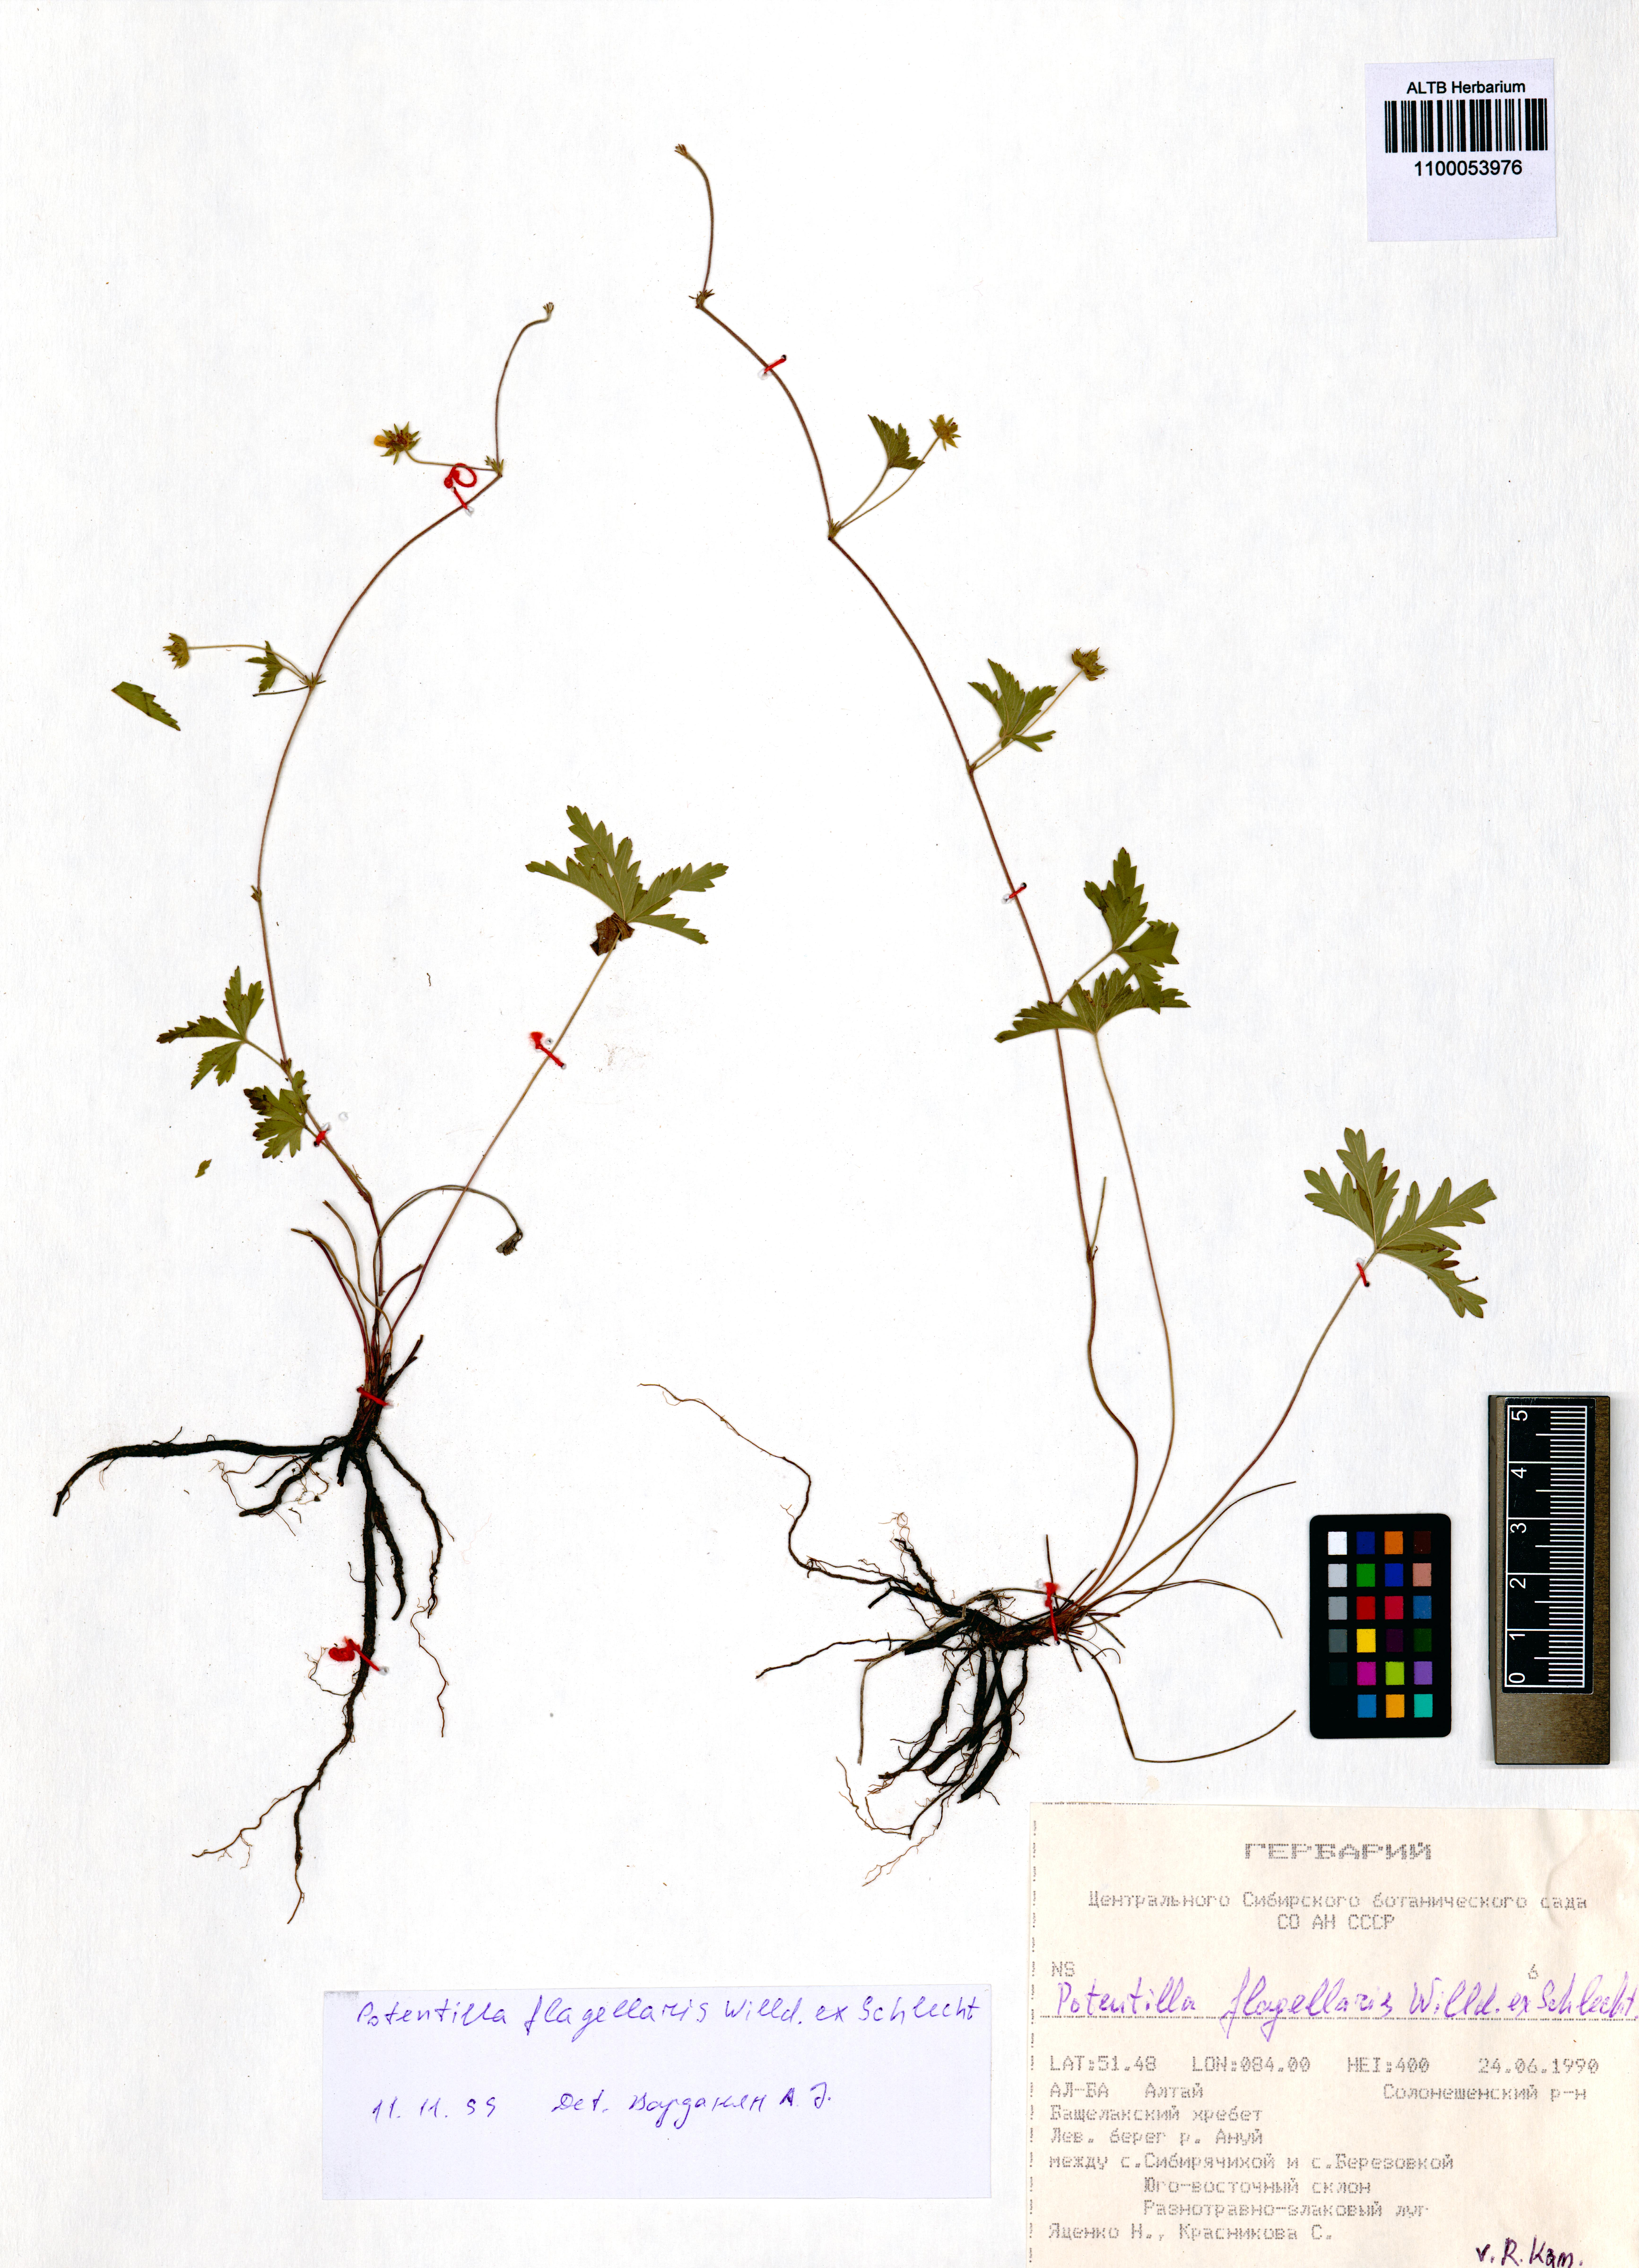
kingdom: Plantae
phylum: Tracheophyta
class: Magnoliopsida
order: Rosales
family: Rosaceae
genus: Potentilla
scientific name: Potentilla flagellaris
